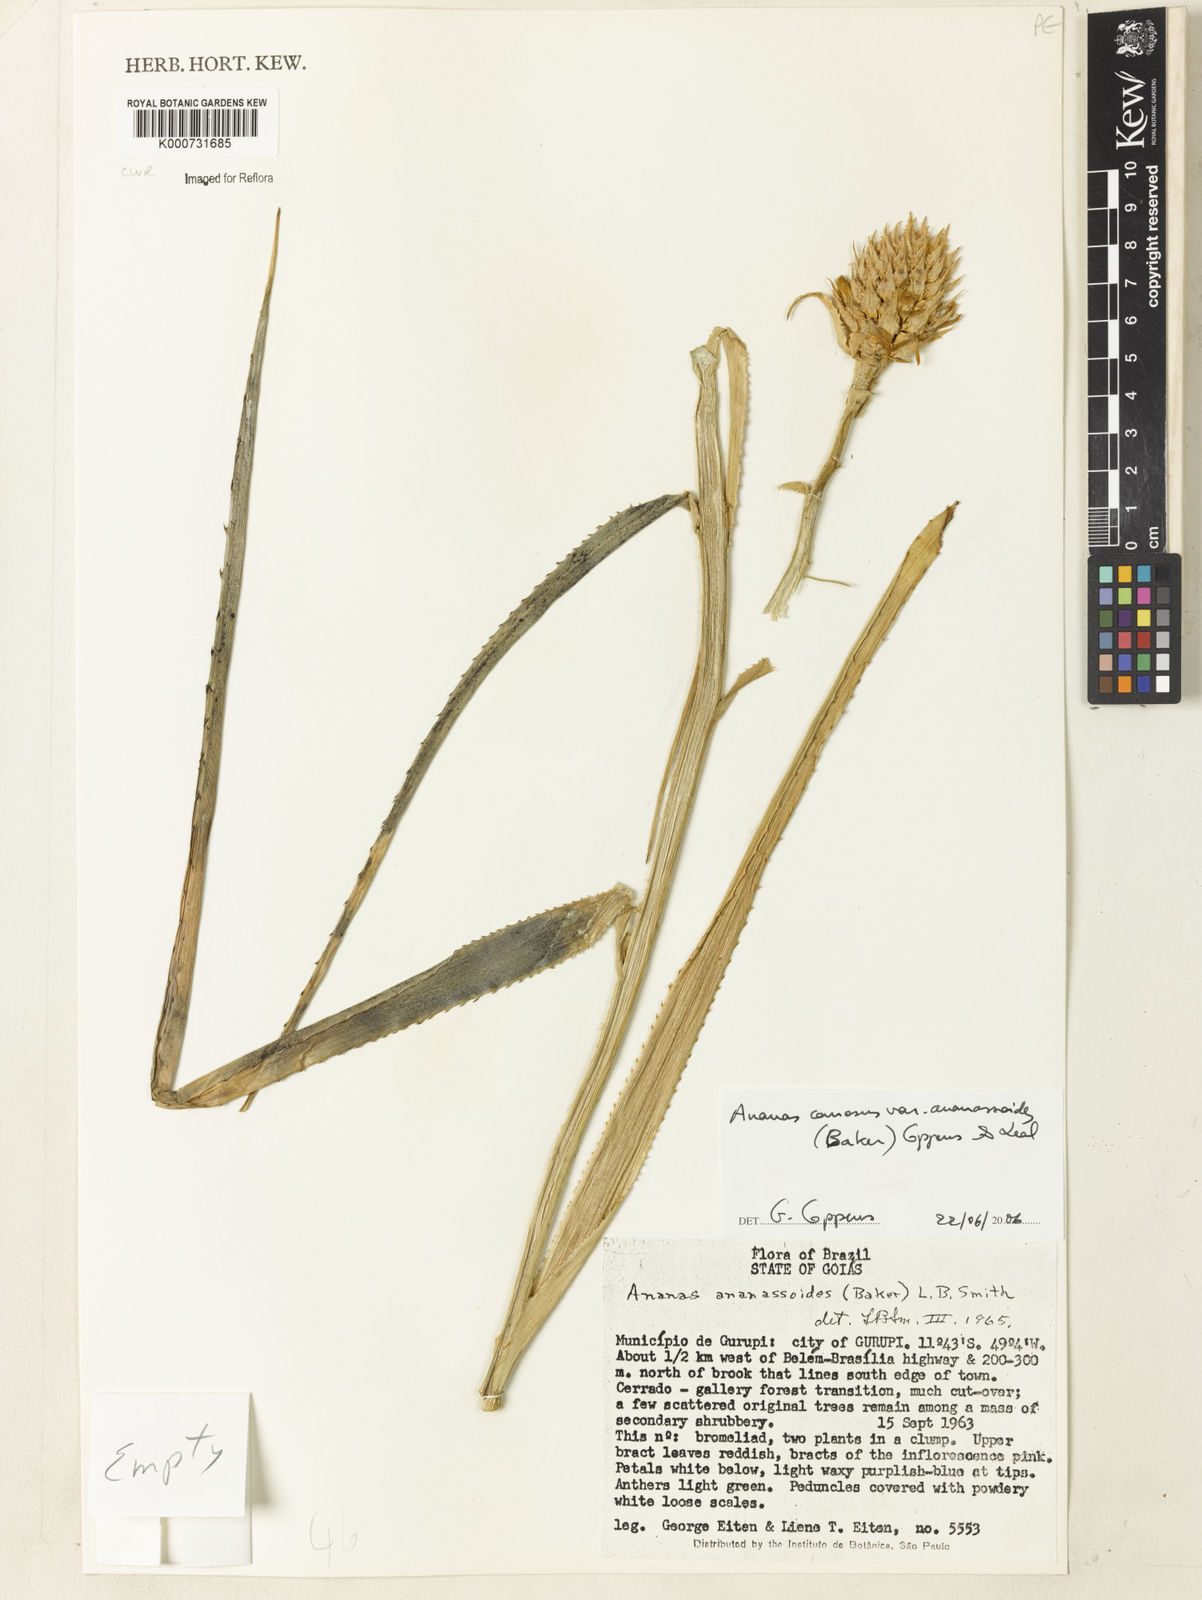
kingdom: Plantae
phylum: Tracheophyta
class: Liliopsida
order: Poales
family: Bromeliaceae
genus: Ananas
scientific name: Ananas comosus
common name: Pineapple
